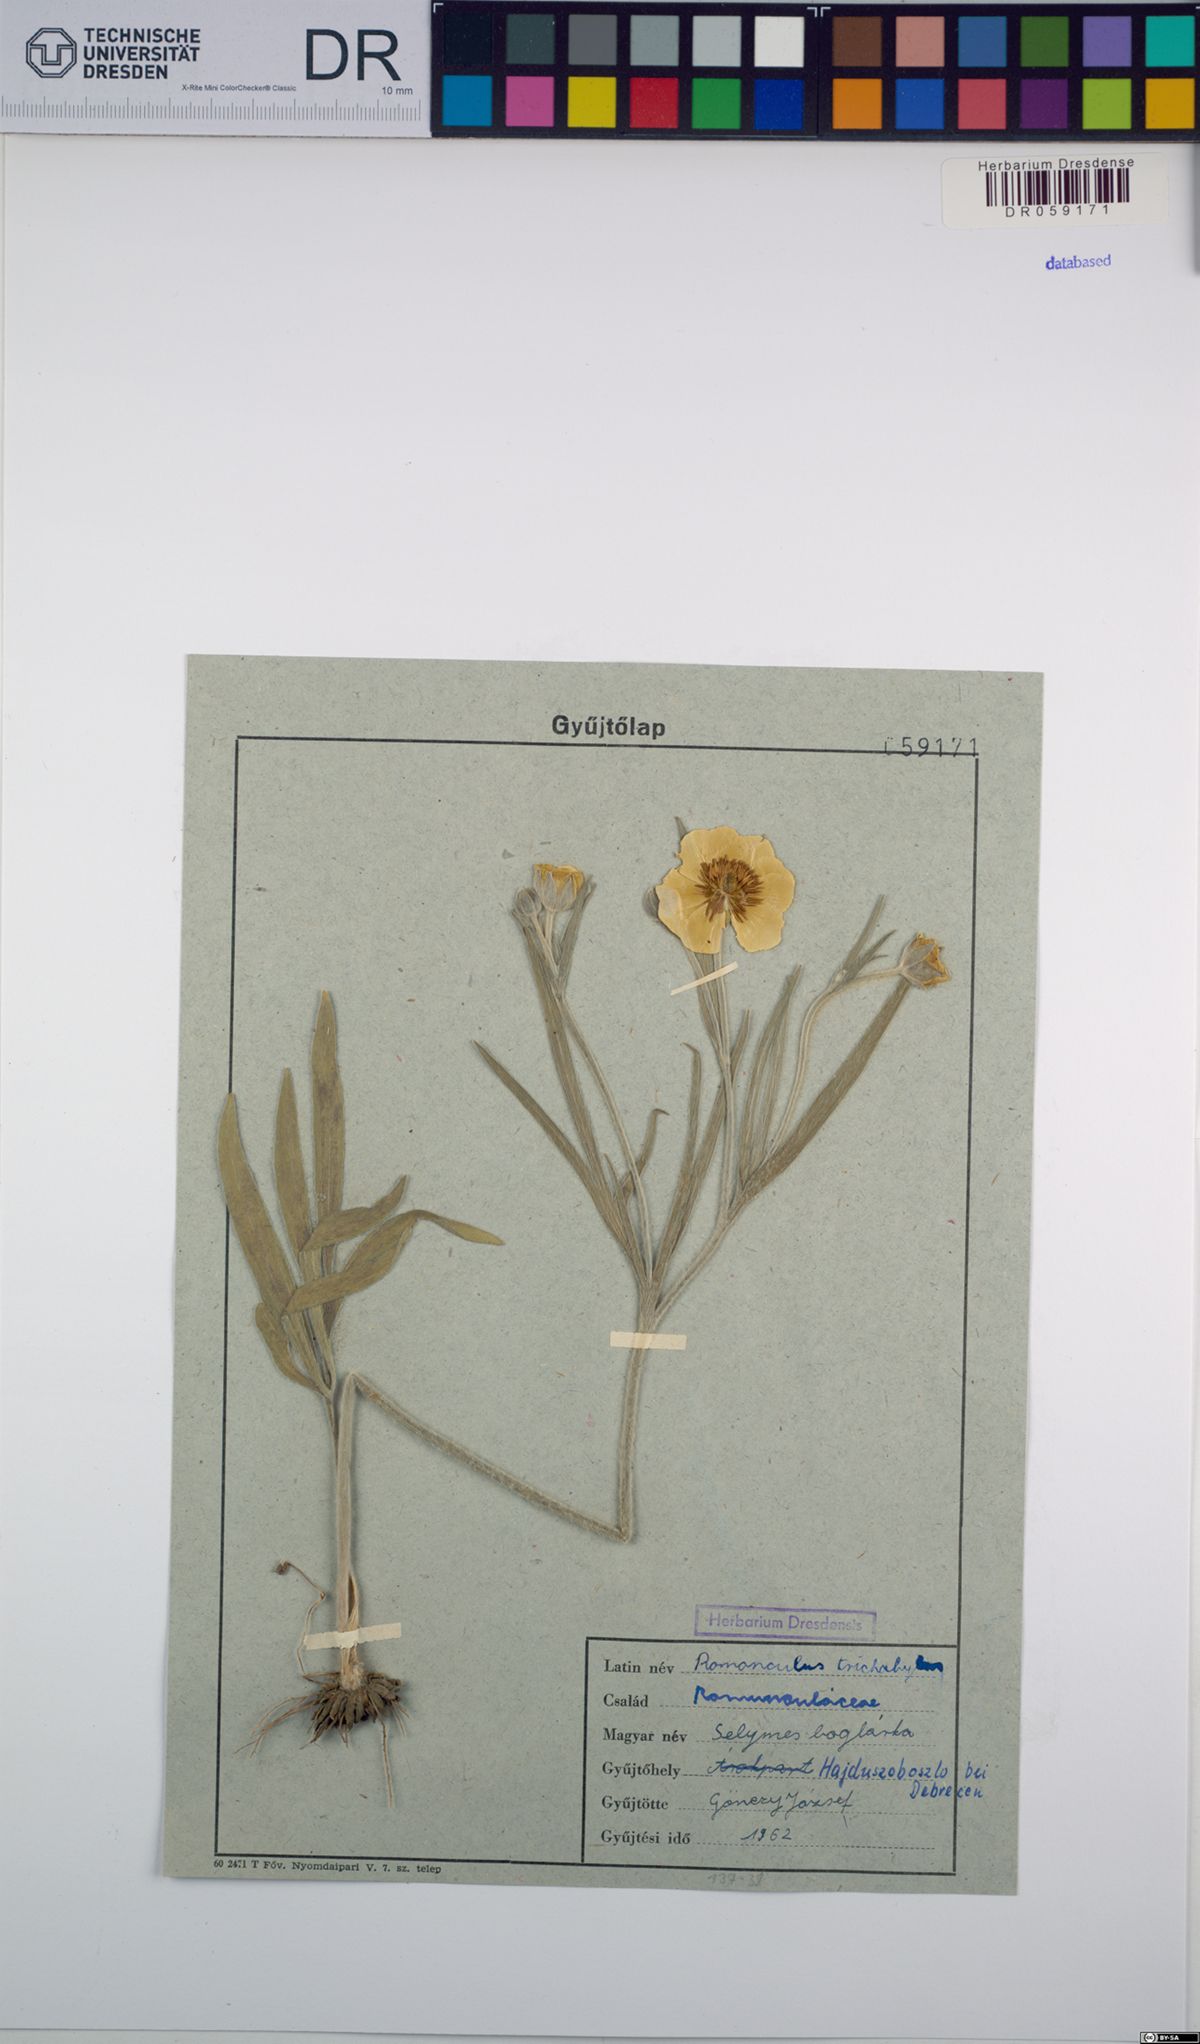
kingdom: Plantae
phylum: Tracheophyta
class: Magnoliopsida
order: Ranunculales
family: Ranunculaceae
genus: Ranunculus
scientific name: Ranunculus trichophyllus
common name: Thread-leaved water-crowfoot
